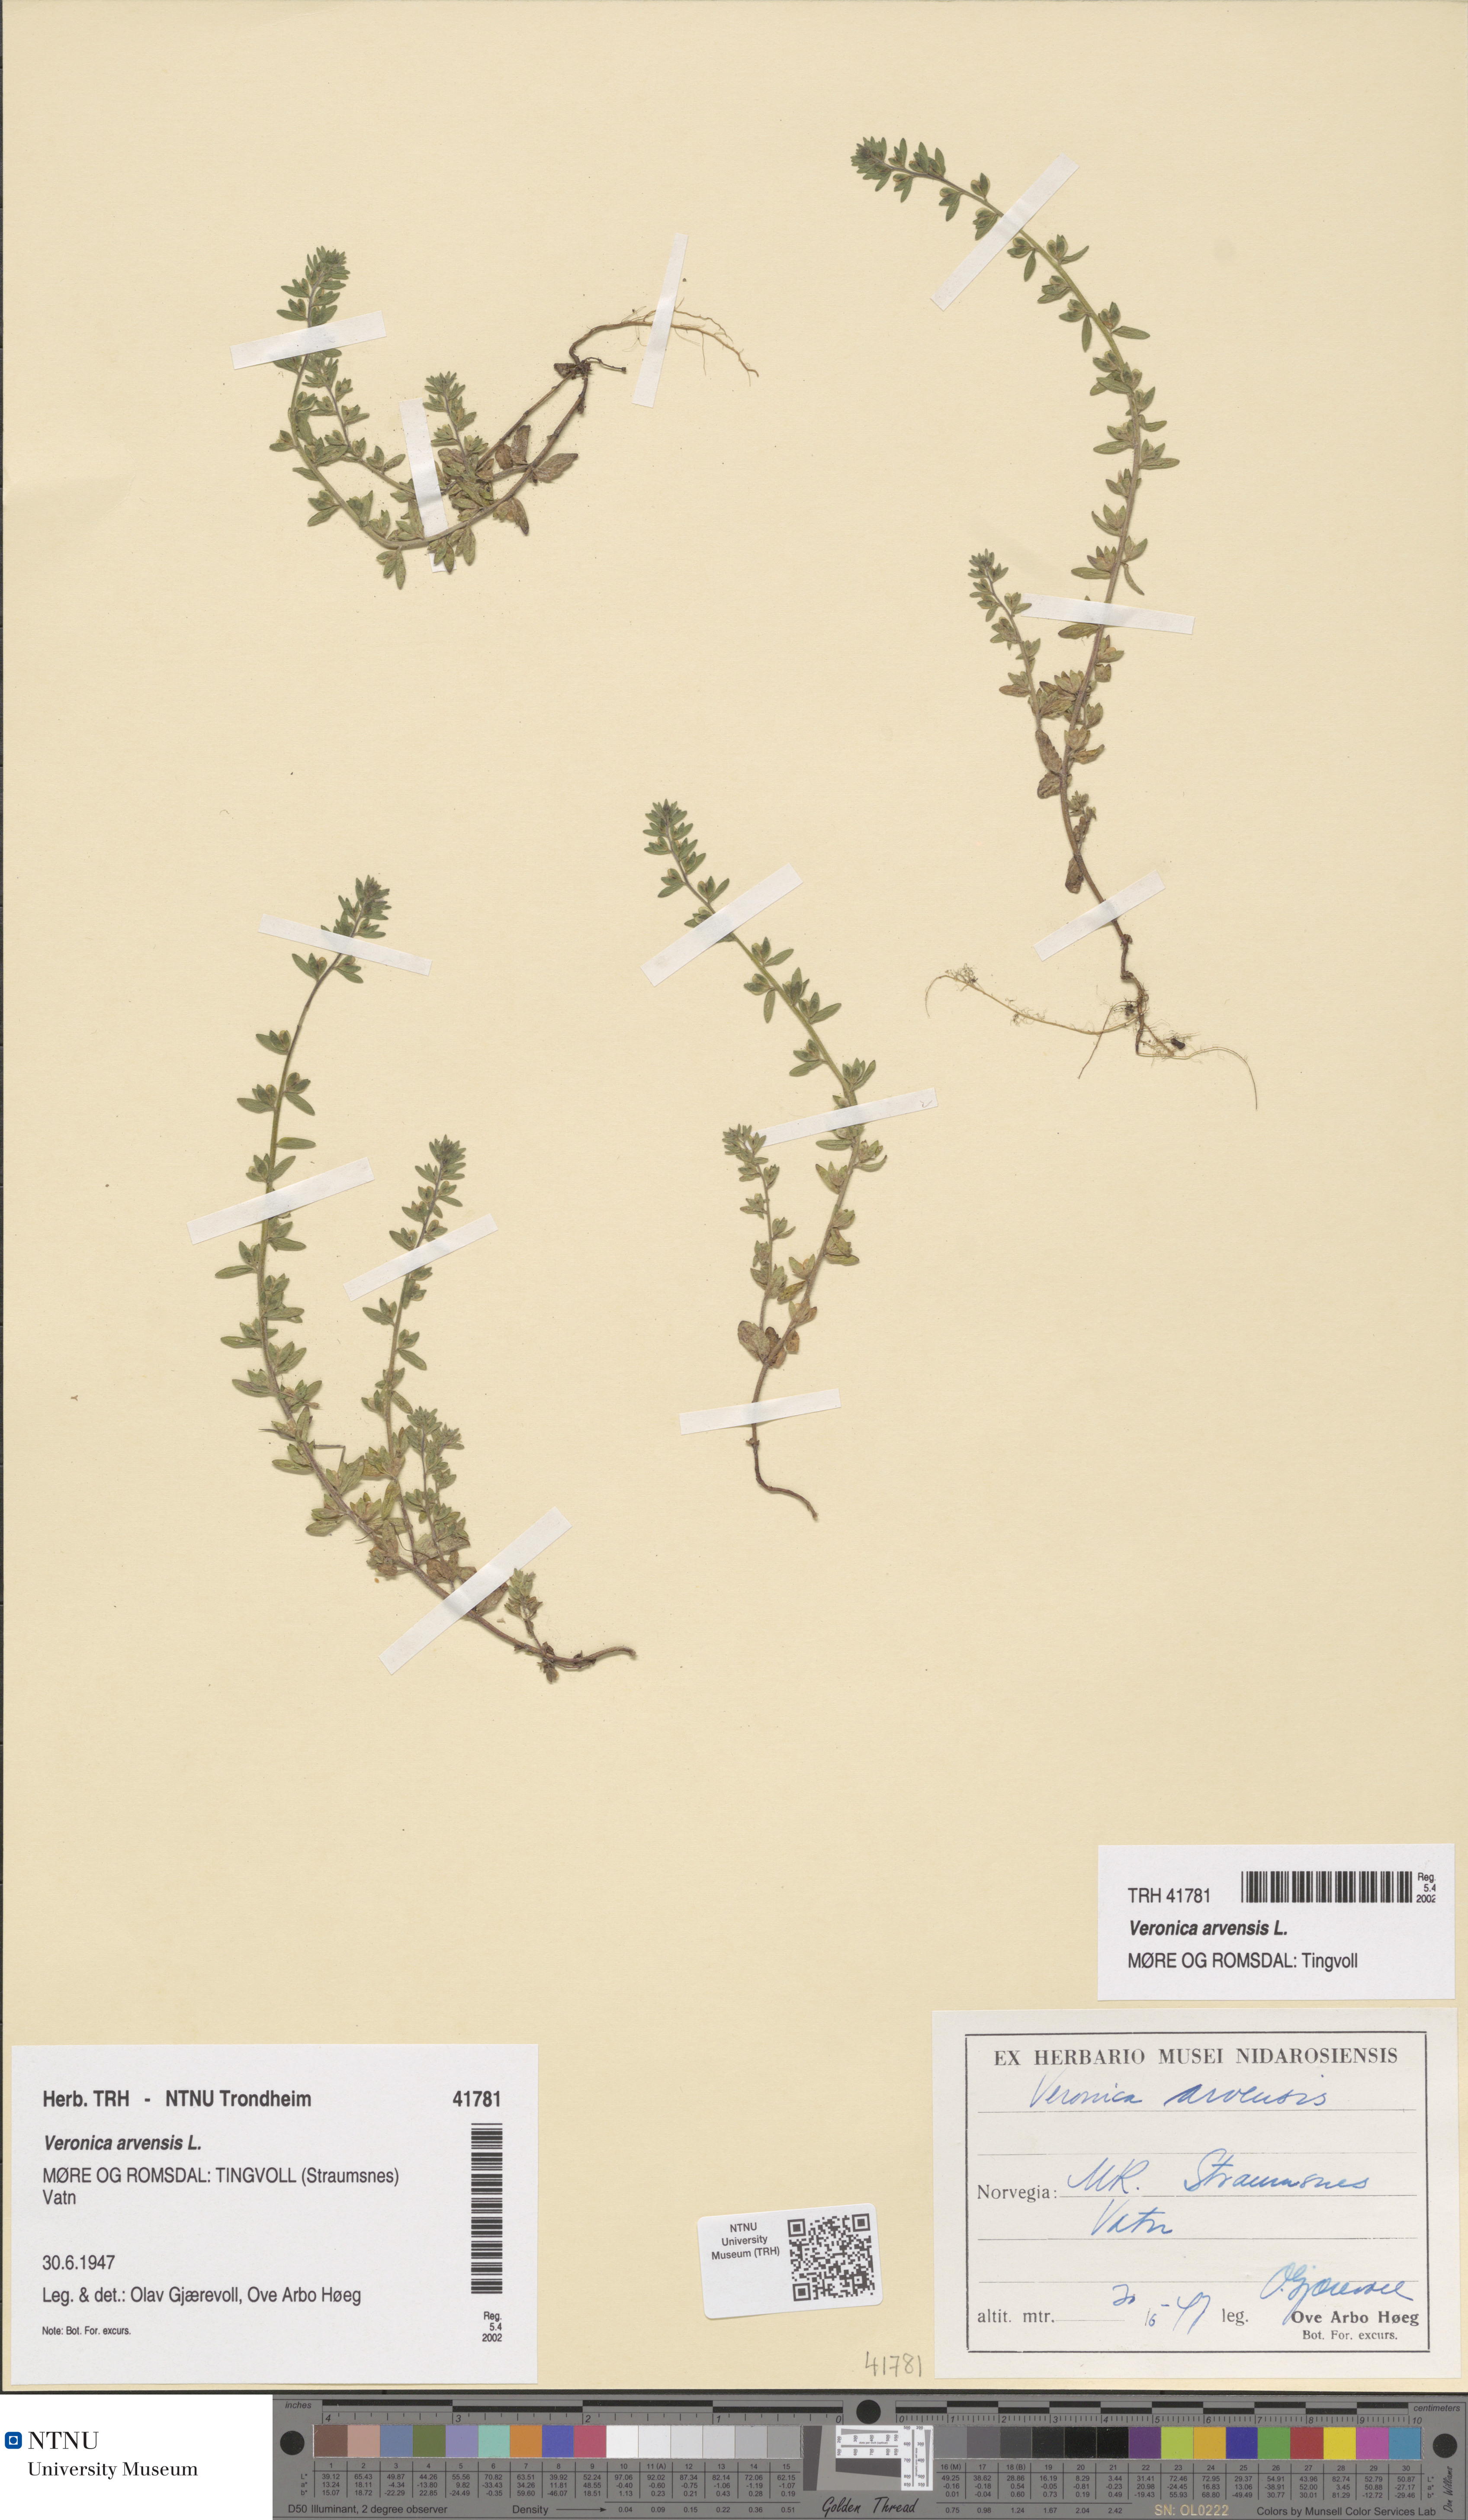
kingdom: Plantae
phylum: Tracheophyta
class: Magnoliopsida
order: Lamiales
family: Plantaginaceae
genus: Veronica
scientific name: Veronica arvensis
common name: Corn speedwell
